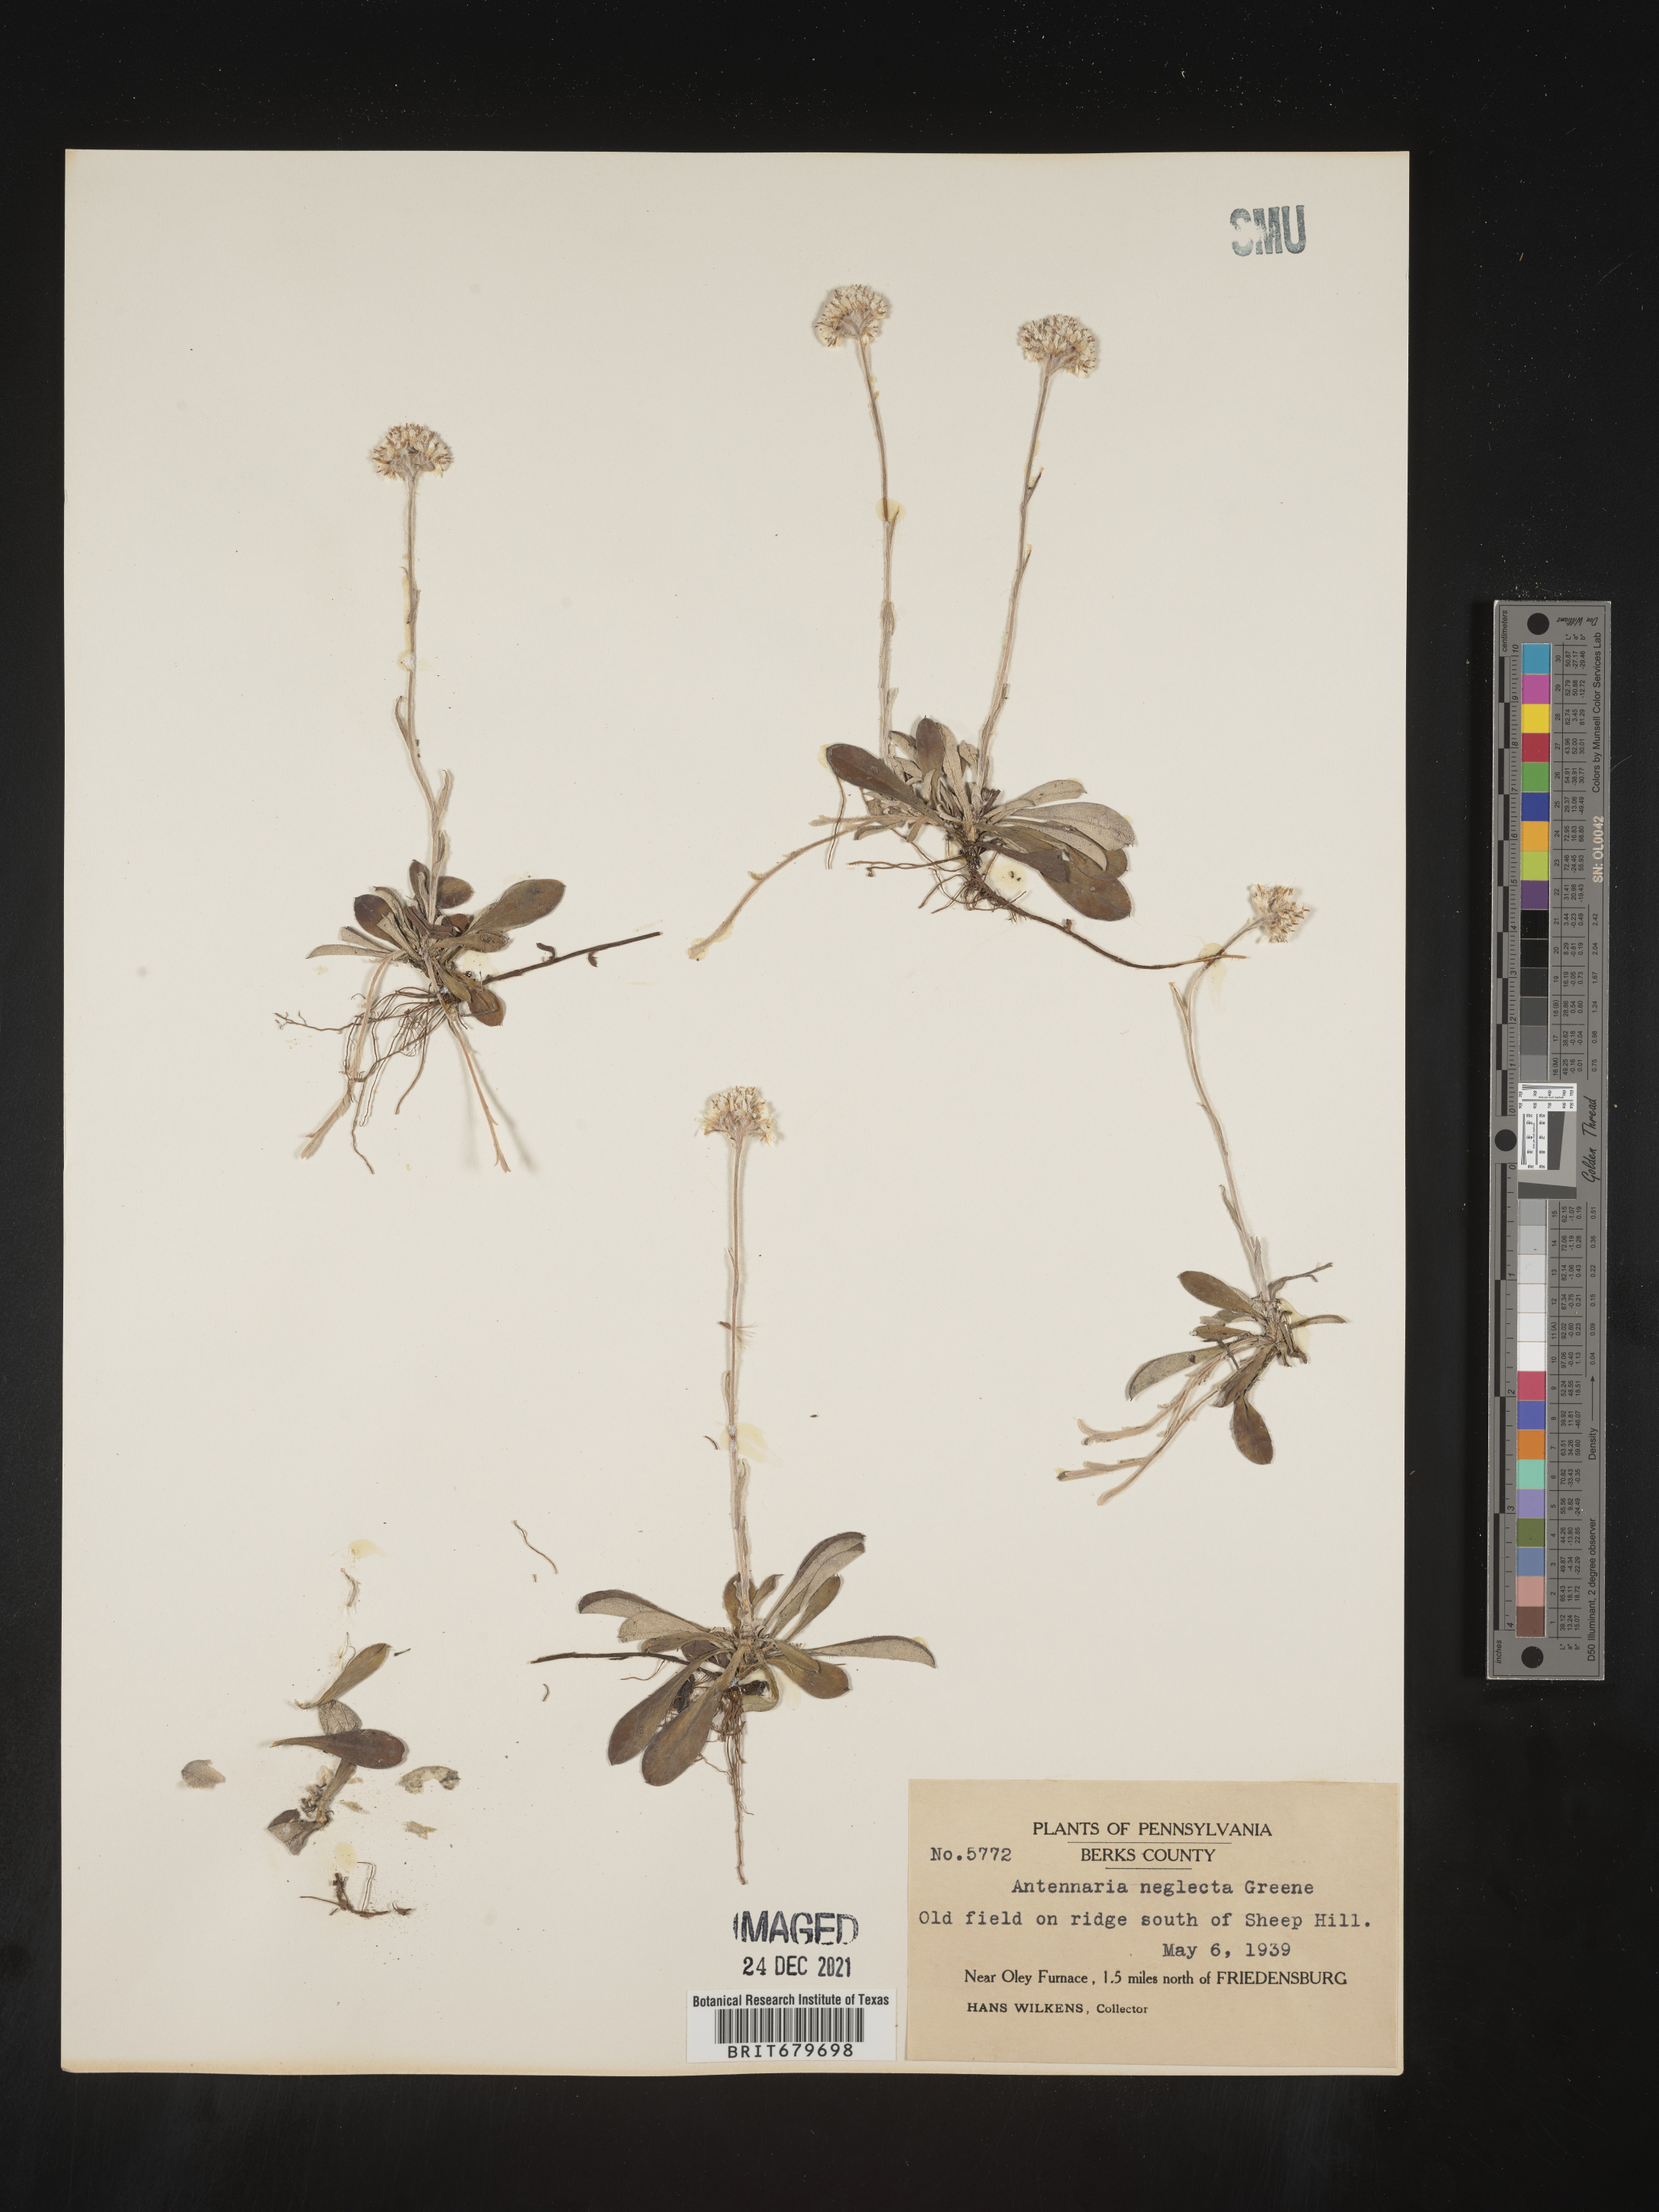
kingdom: Plantae
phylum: Tracheophyta
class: Magnoliopsida
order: Asterales
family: Asteraceae
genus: Antennaria
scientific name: Antennaria neglecta
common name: Field pussytoes
